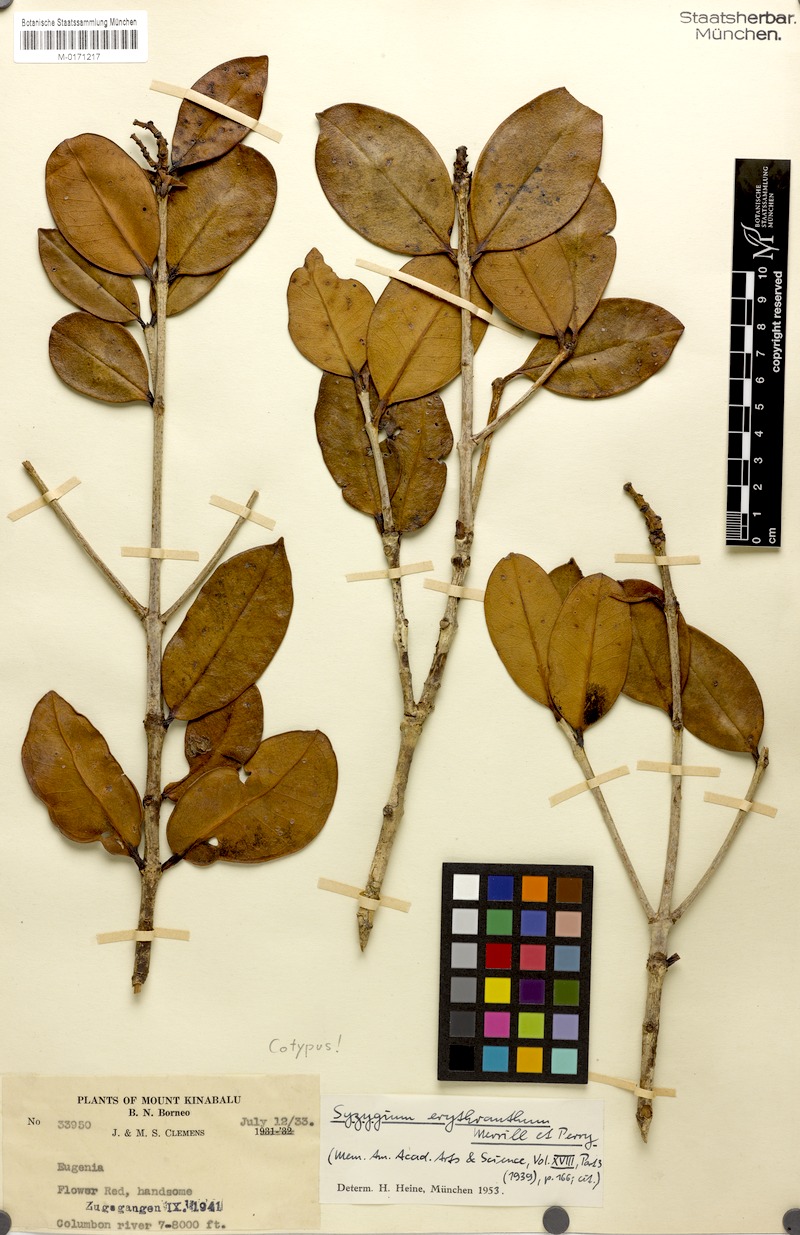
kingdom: Plantae
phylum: Tracheophyta
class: Magnoliopsida
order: Myrtales
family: Myrtaceae
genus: Syzygium
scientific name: Syzygium erythranthum
